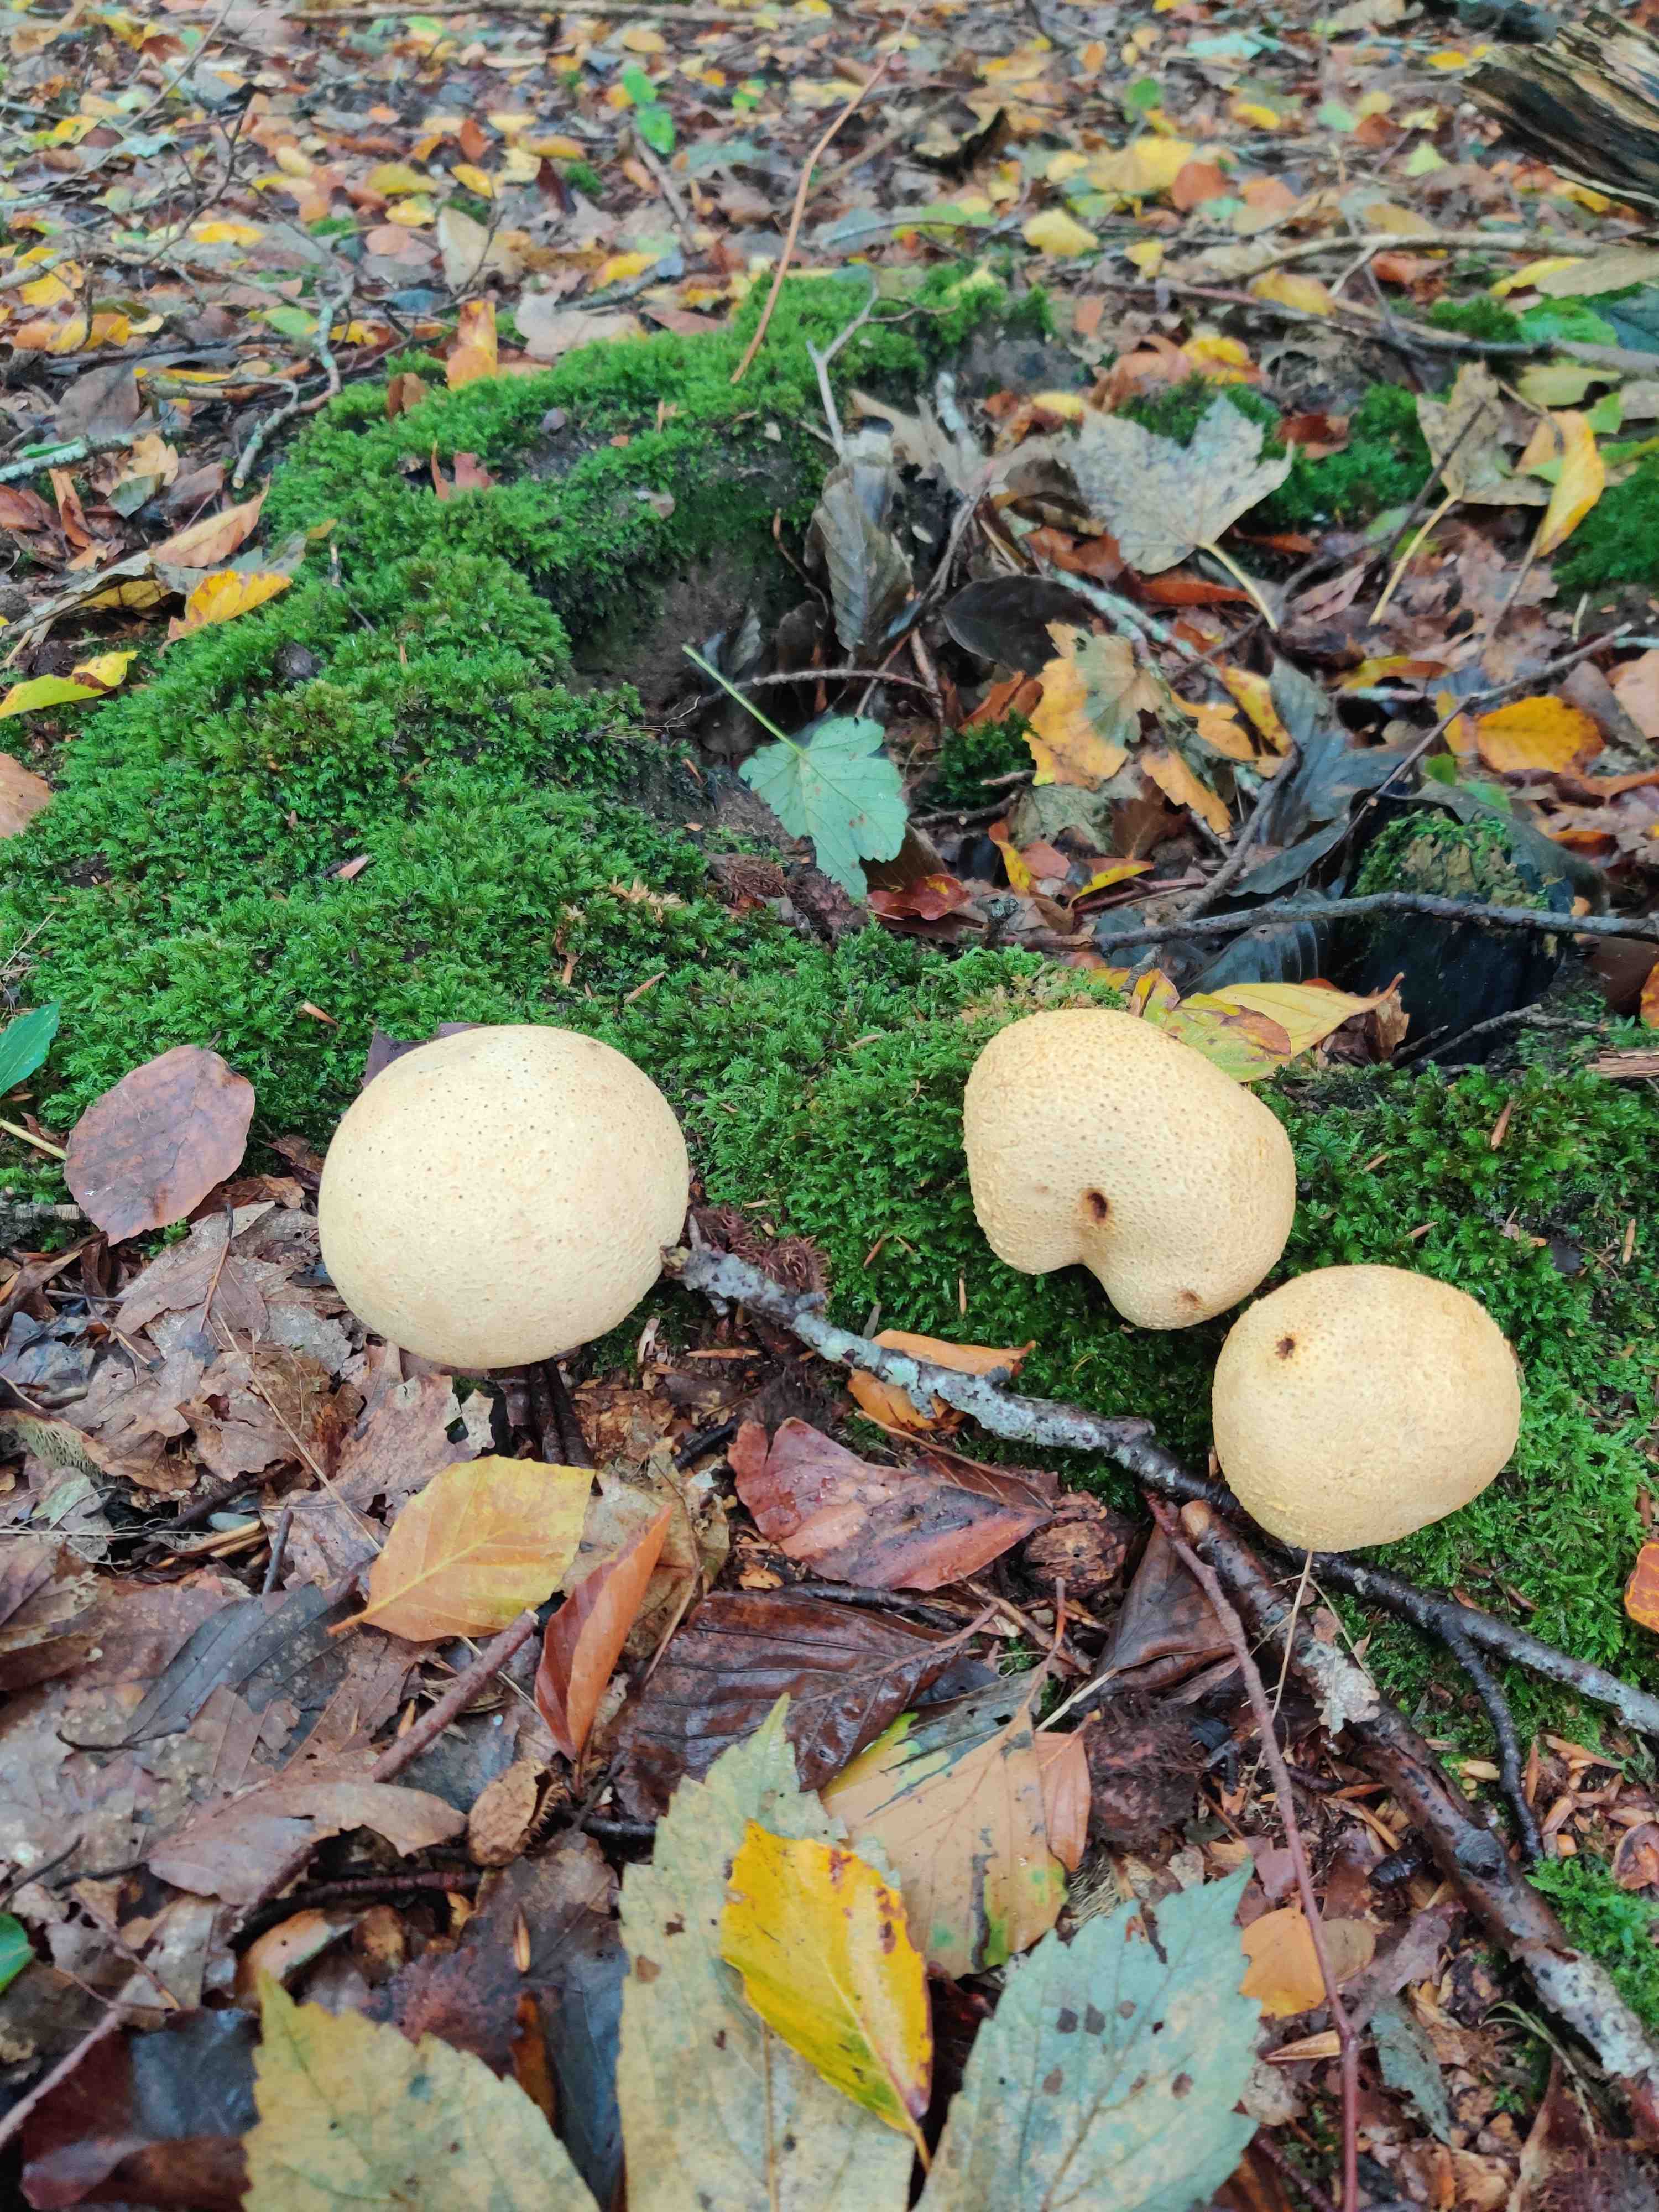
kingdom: Fungi
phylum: Basidiomycota
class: Agaricomycetes
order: Boletales
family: Sclerodermataceae
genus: Scleroderma
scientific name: Scleroderma citrinum
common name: almindelig bruskbold
